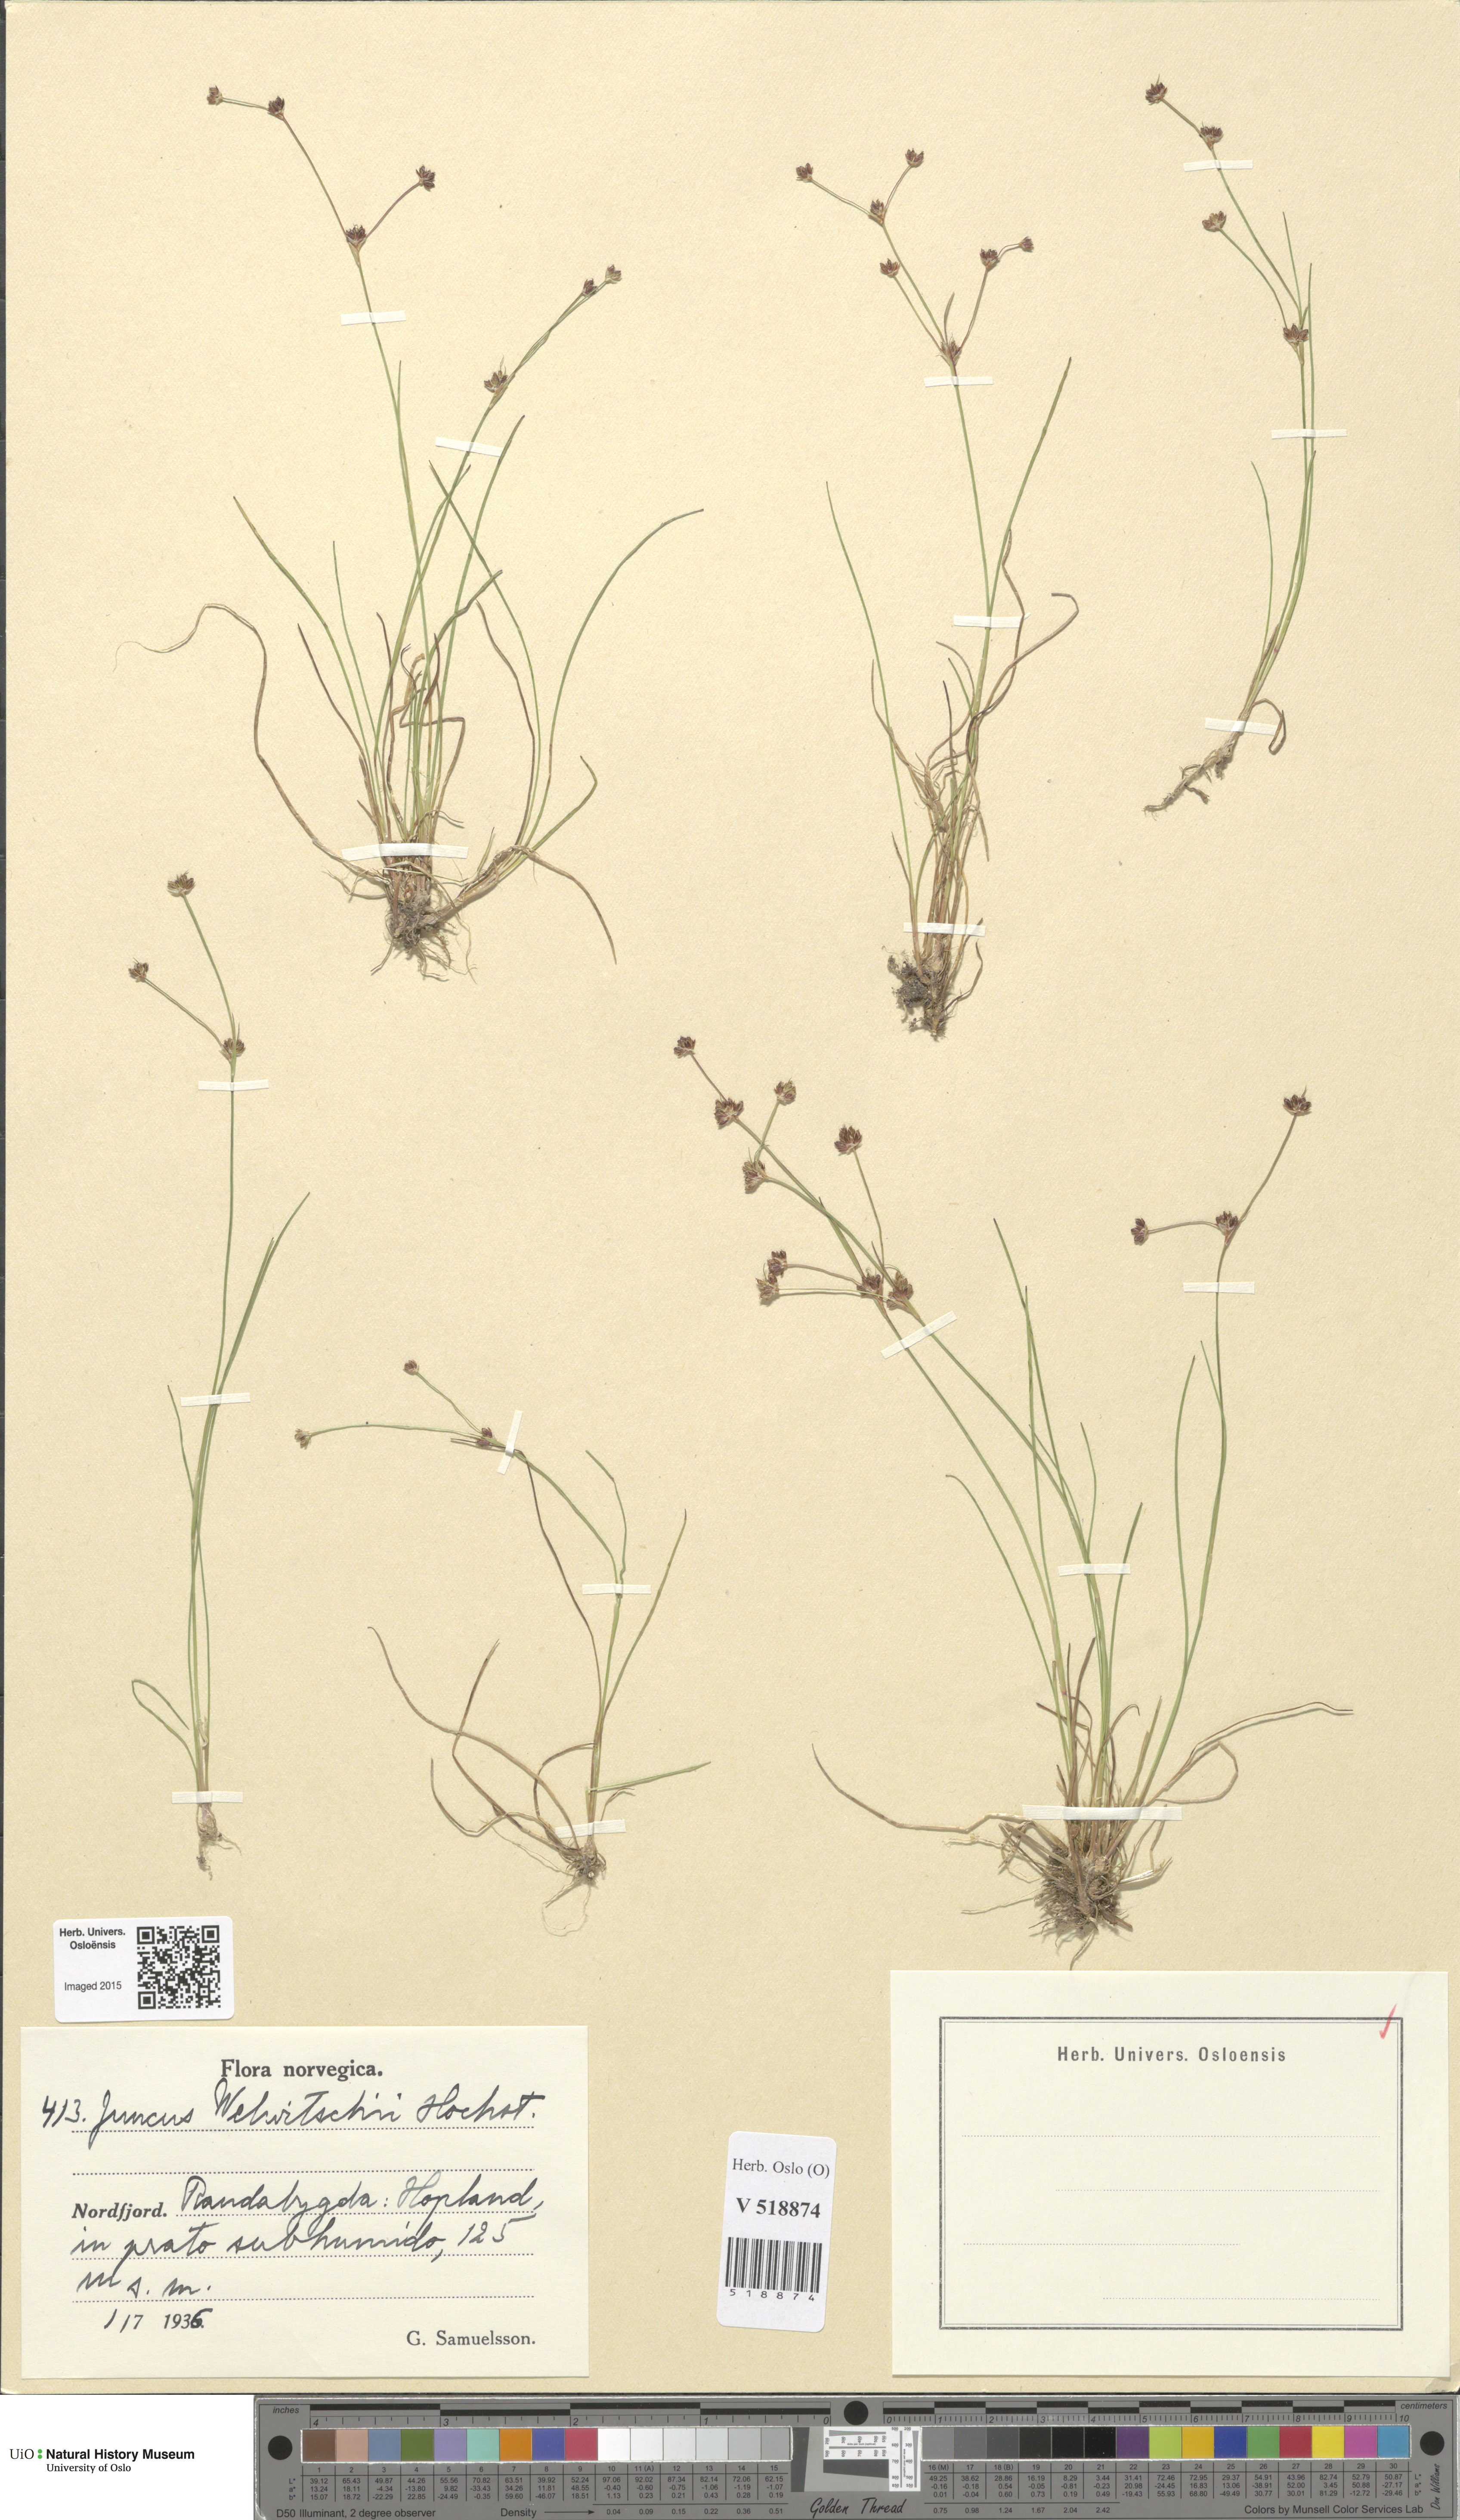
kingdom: Plantae
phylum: Tracheophyta
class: Liliopsida
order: Poales
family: Juncaceae
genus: Juncus
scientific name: Juncus bulbosus
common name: Bulbous rush
